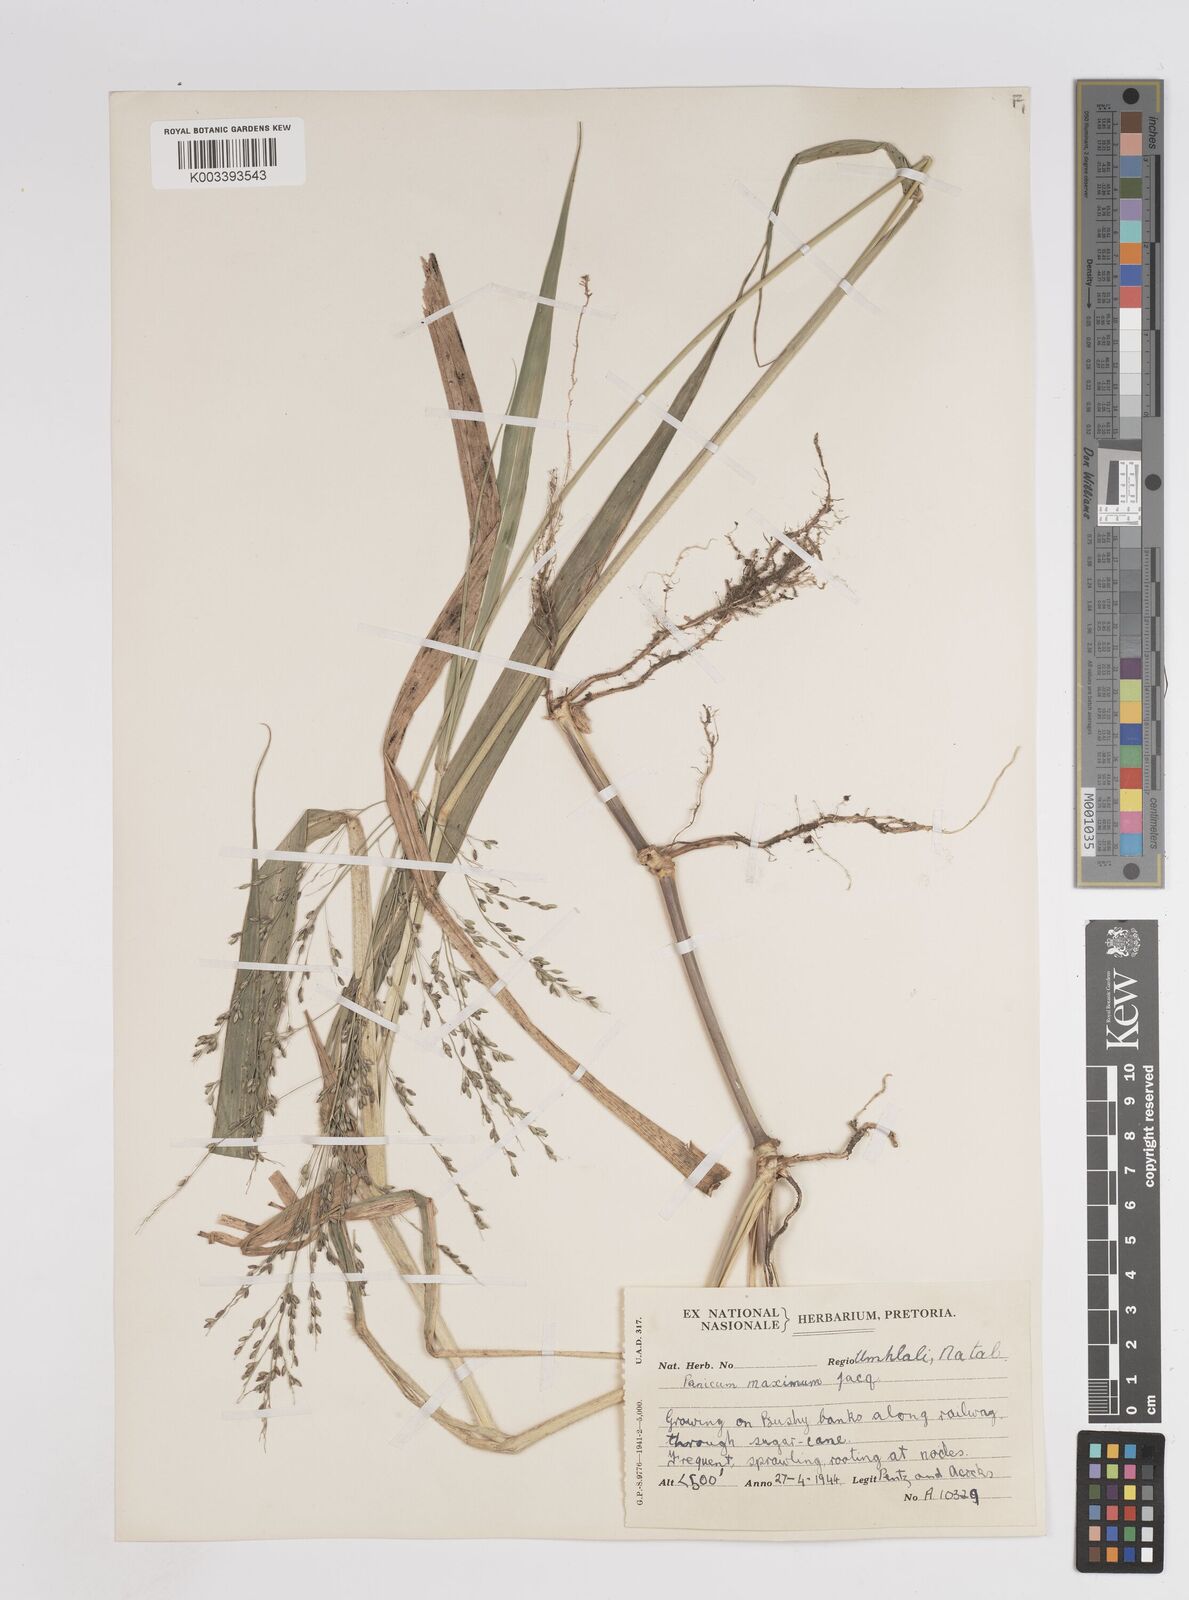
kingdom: Plantae
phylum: Tracheophyta
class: Liliopsida
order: Poales
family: Poaceae
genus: Megathyrsus
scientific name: Megathyrsus maximus
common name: Guineagrass
